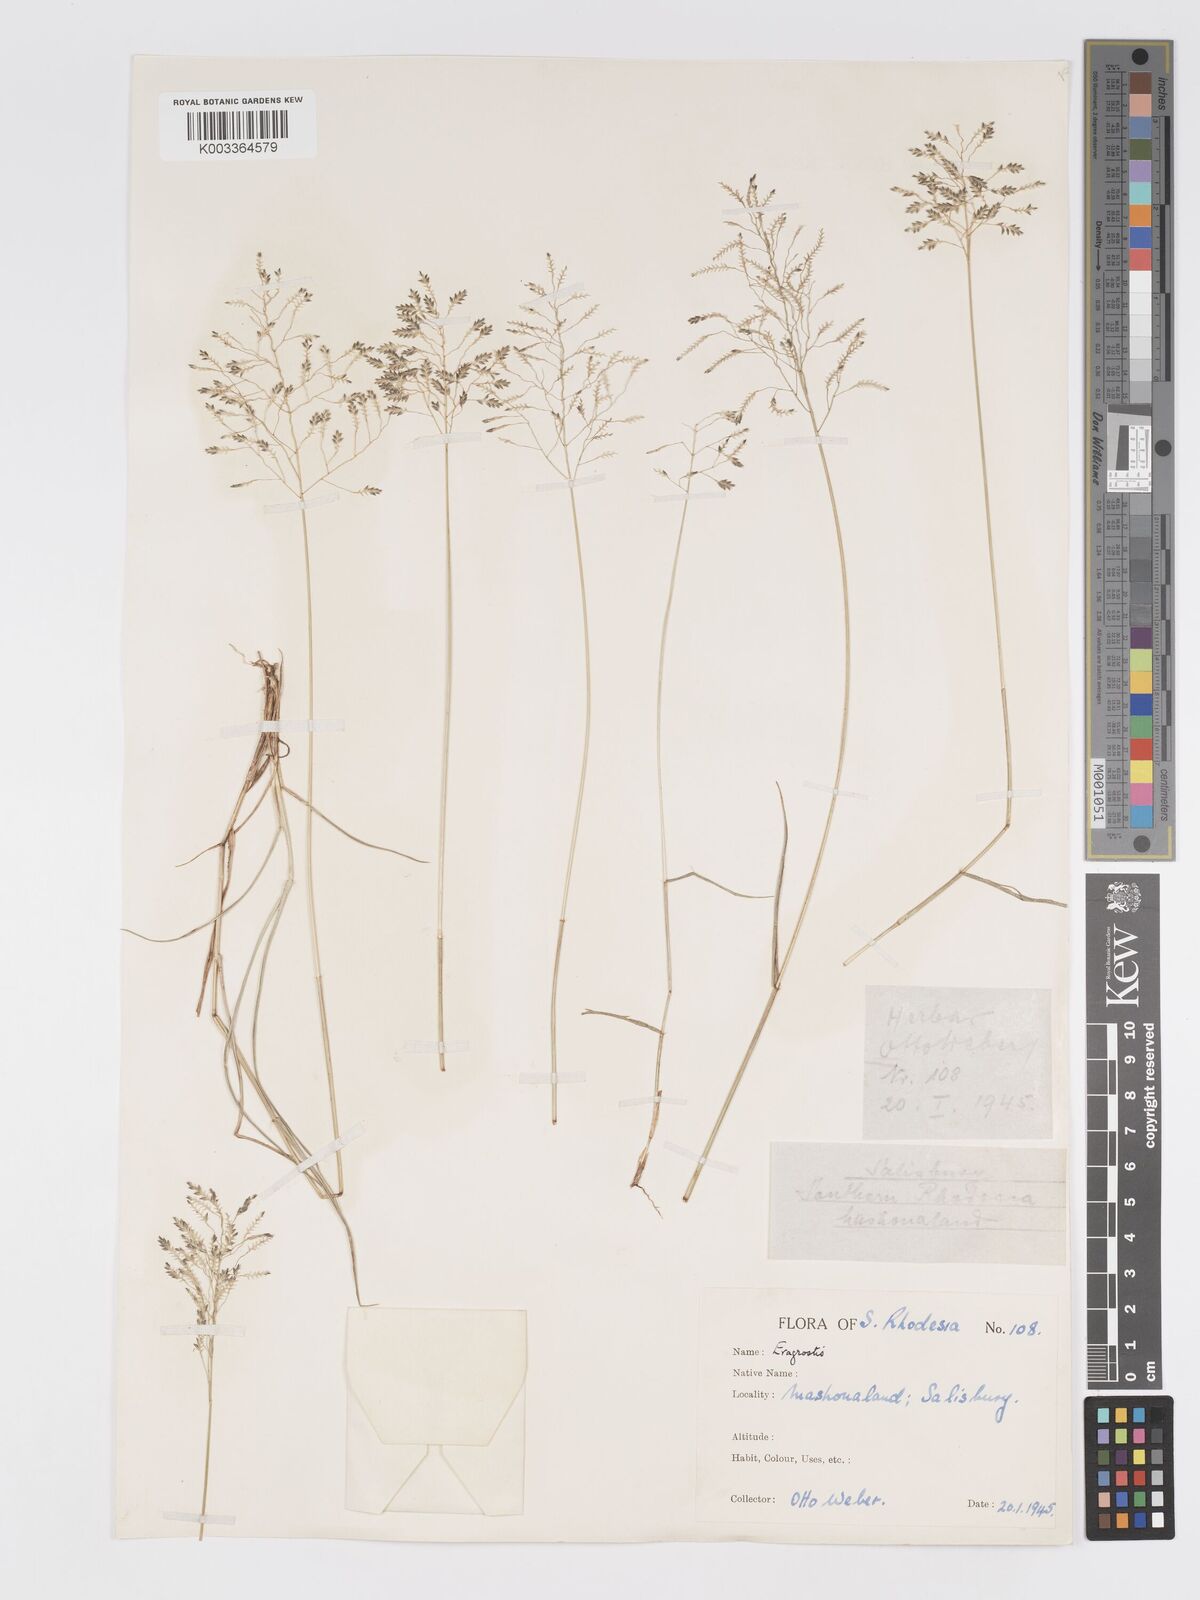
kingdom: Plantae
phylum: Tracheophyta
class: Liliopsida
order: Poales
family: Poaceae
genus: Eragrostis
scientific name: Eragrostis patentipilosa
